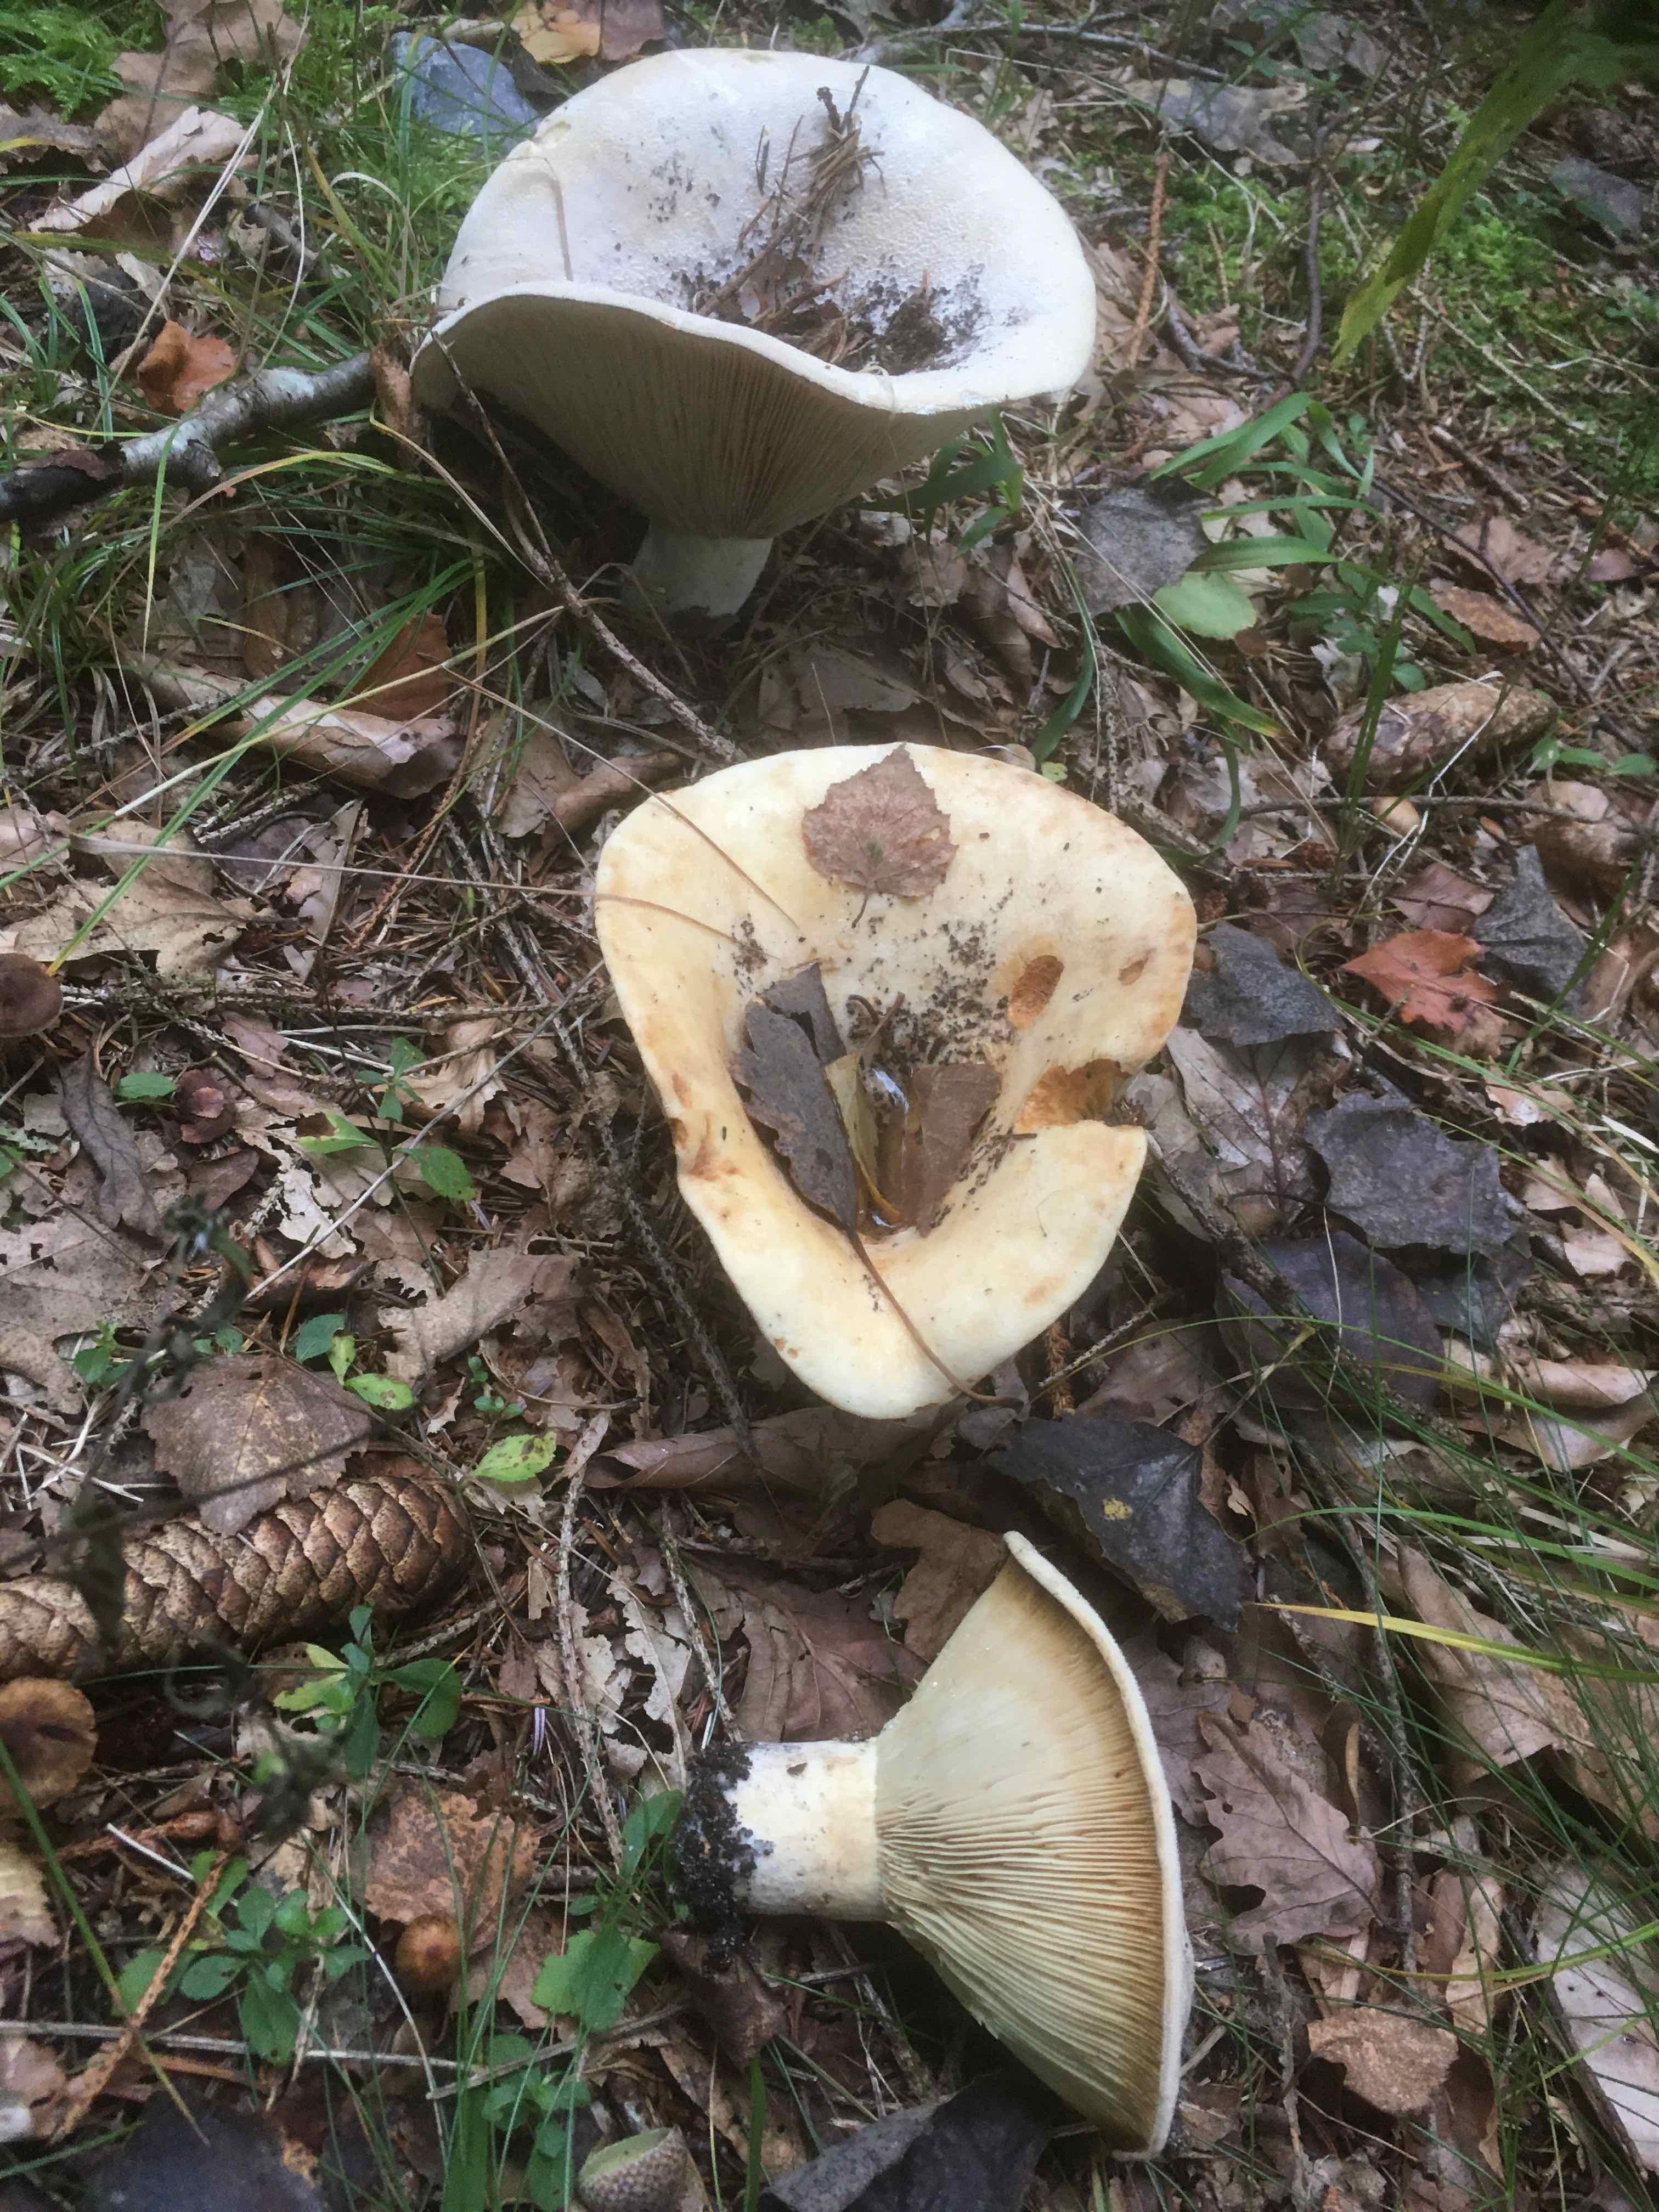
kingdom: Fungi
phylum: Basidiomycota
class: Agaricomycetes
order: Russulales
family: Russulaceae
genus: Lactifluus
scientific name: Lactifluus
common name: mælkehat
